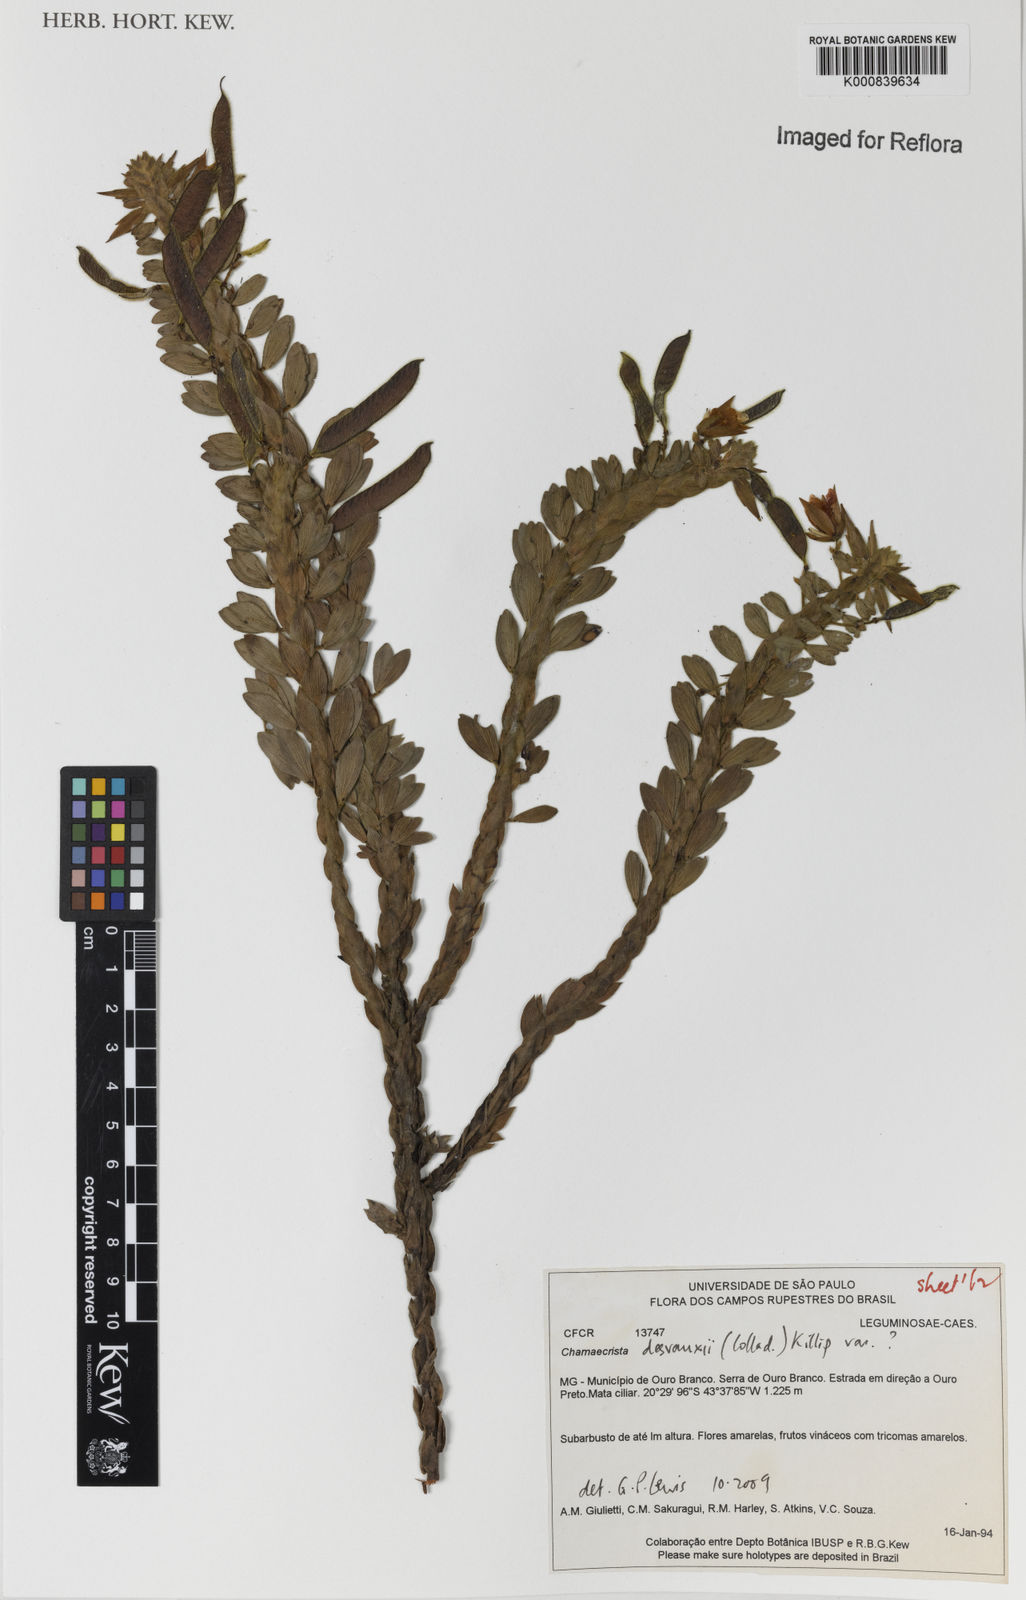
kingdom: Plantae
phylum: Tracheophyta
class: Magnoliopsida
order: Fabales
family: Fabaceae
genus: Chamaecrista
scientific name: Chamaecrista desvauxii
